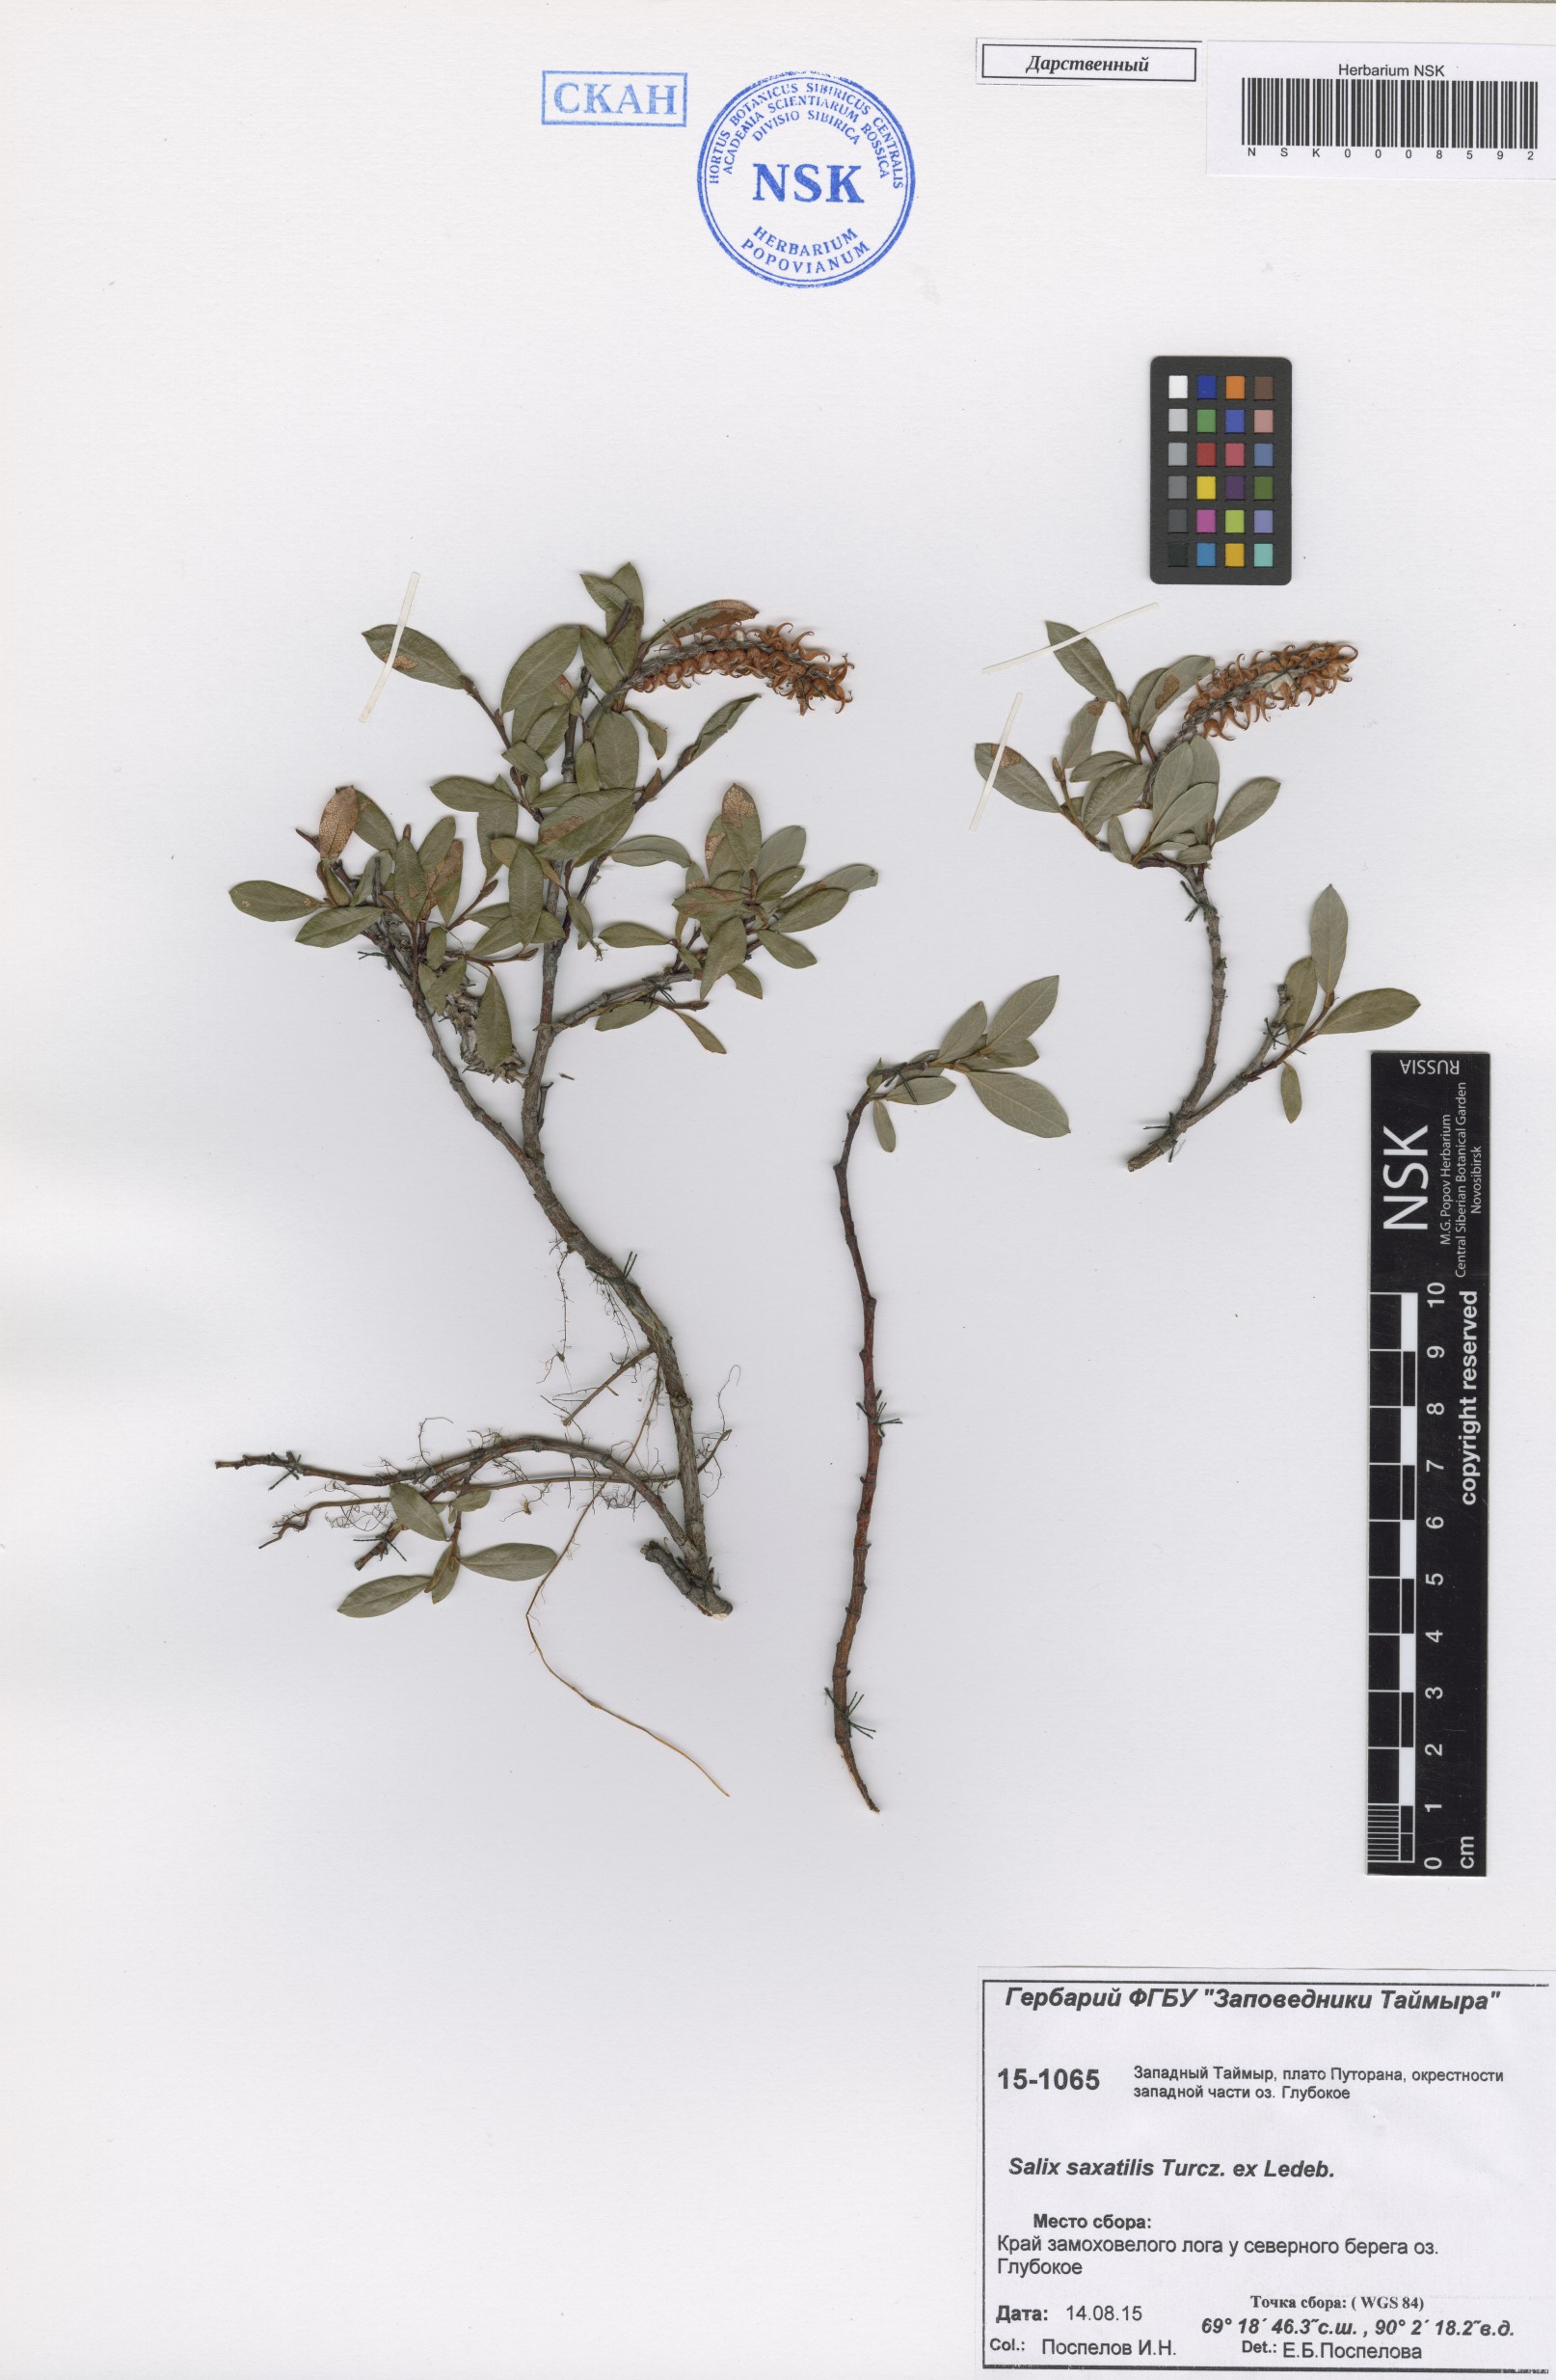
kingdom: Plantae
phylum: Tracheophyta
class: Magnoliopsida
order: Malpighiales
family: Salicaceae
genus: Salix
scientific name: Salix saxatilis
